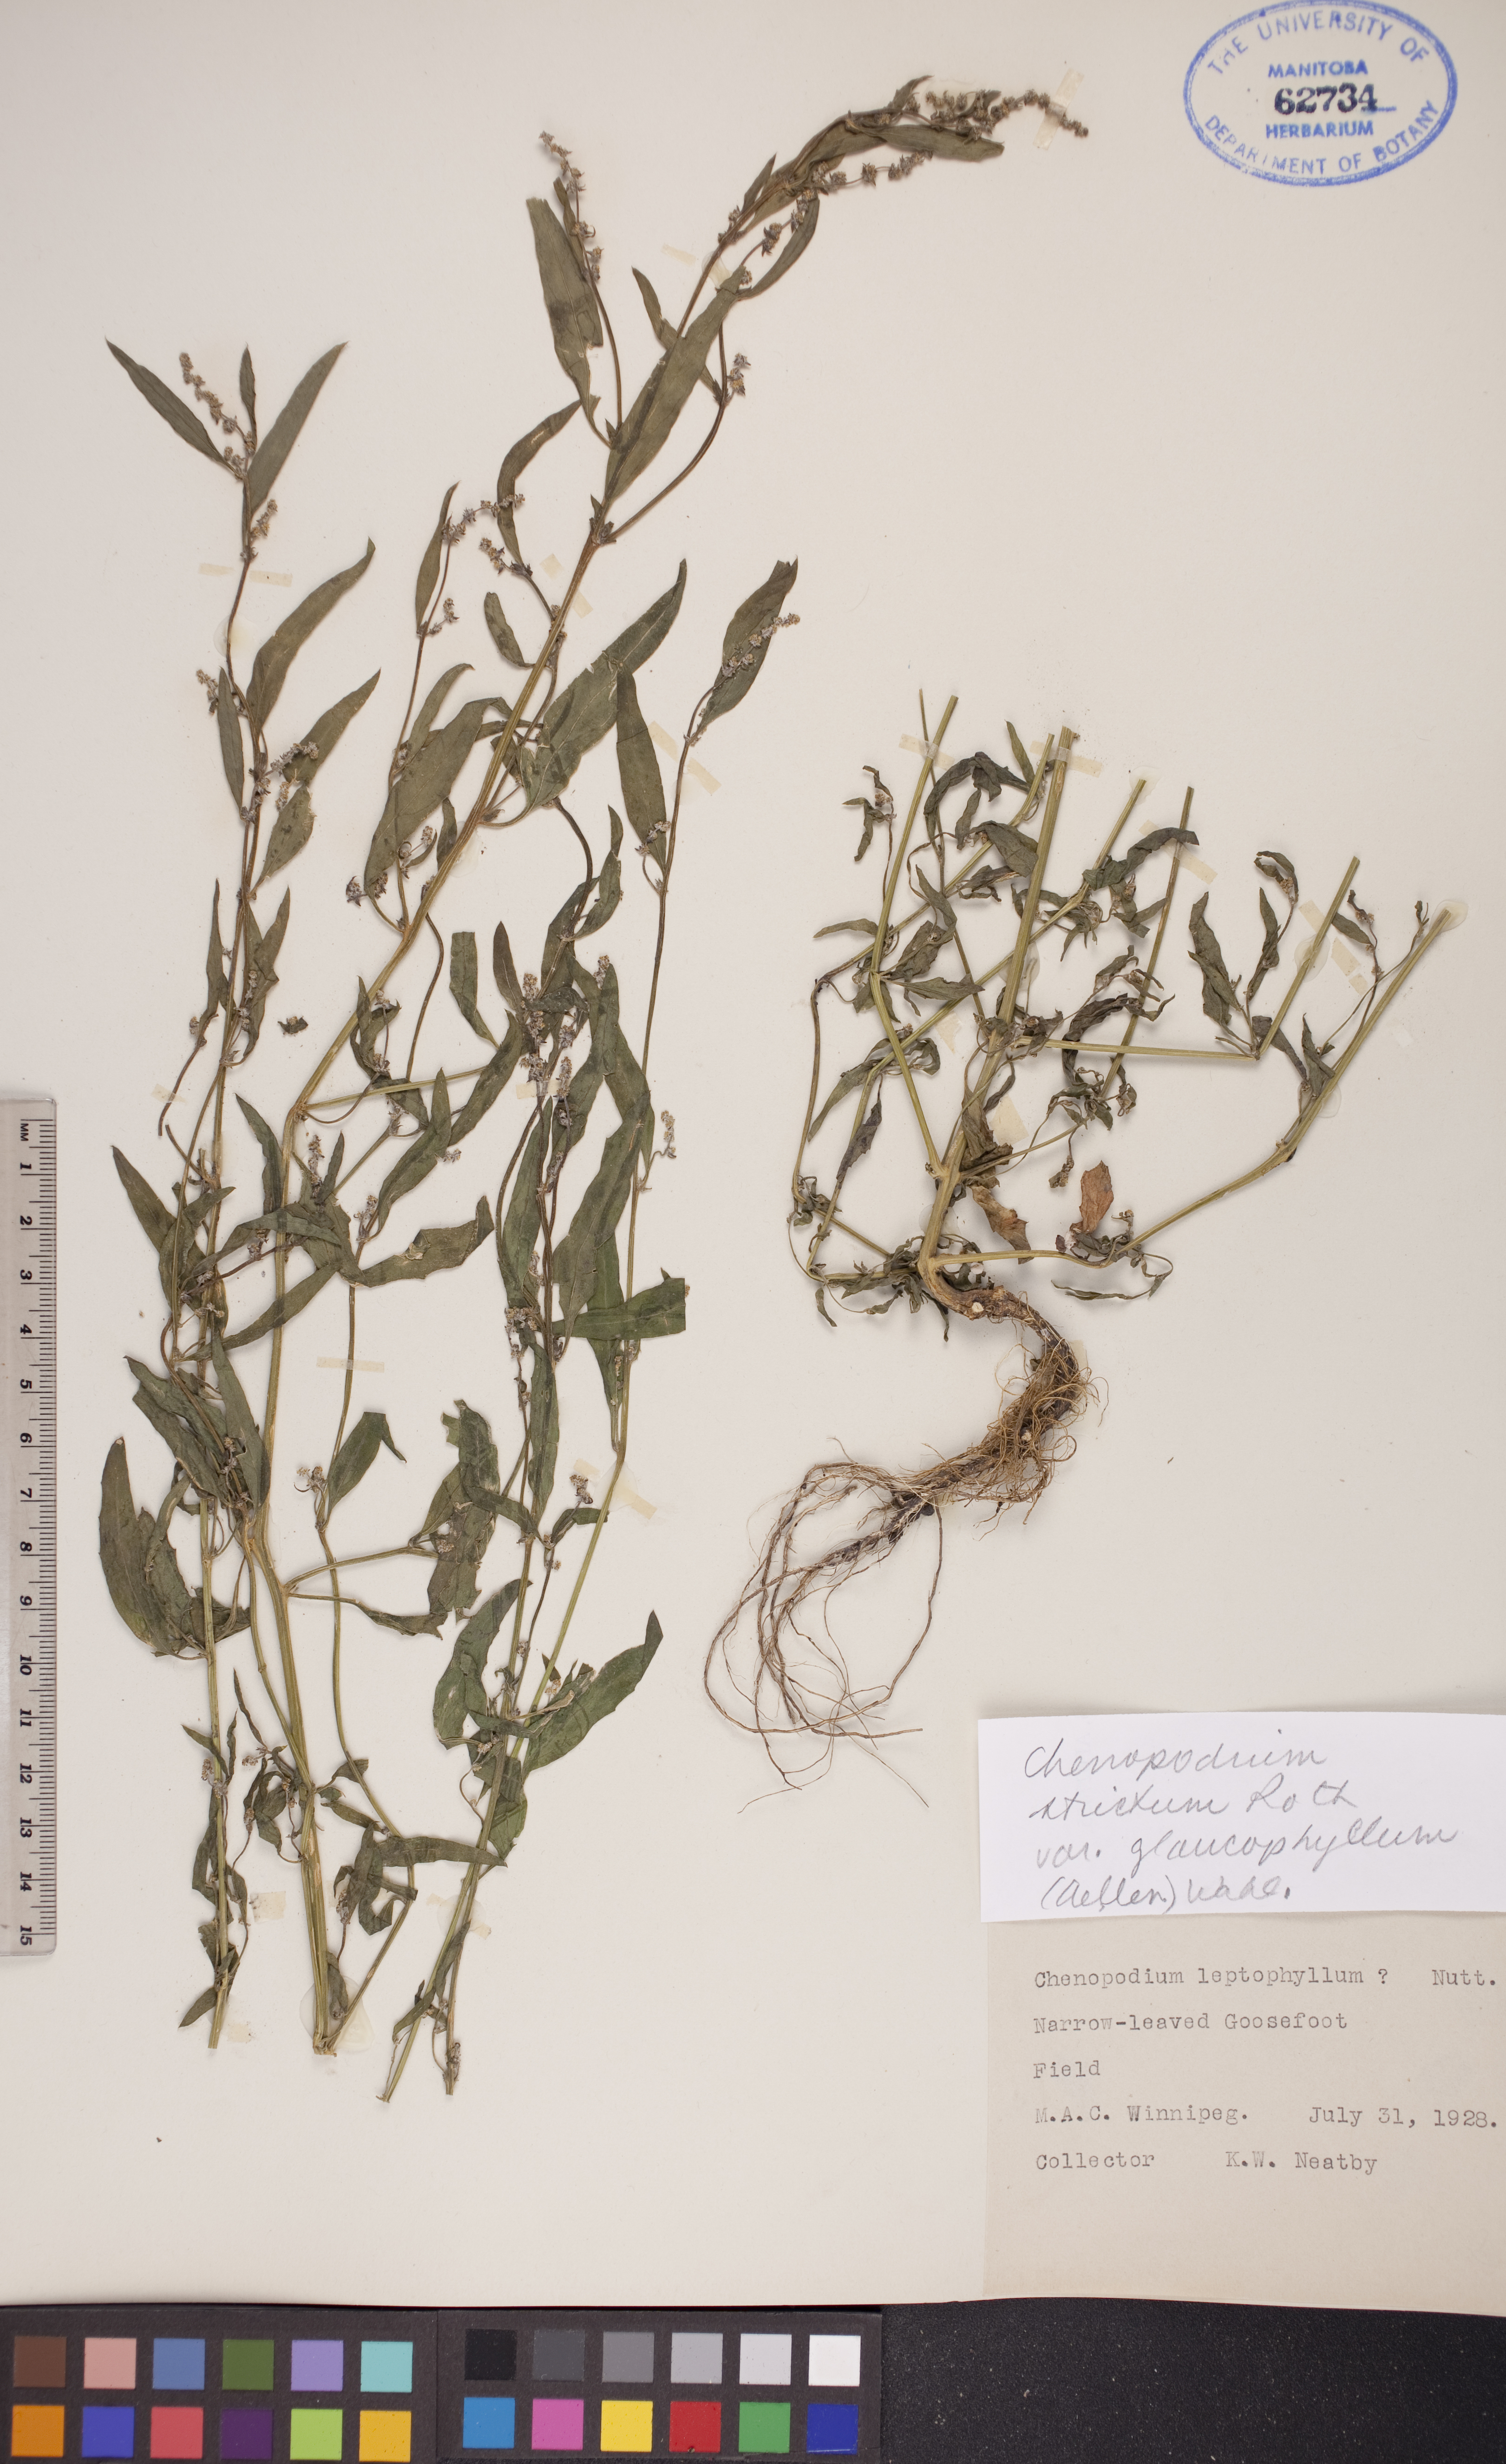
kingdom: Plantae
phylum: Tracheophyta
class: Magnoliopsida
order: Caryophyllales
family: Amaranthaceae
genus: Chenopodium
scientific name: Chenopodium betaceum
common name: Striped goosefoot
